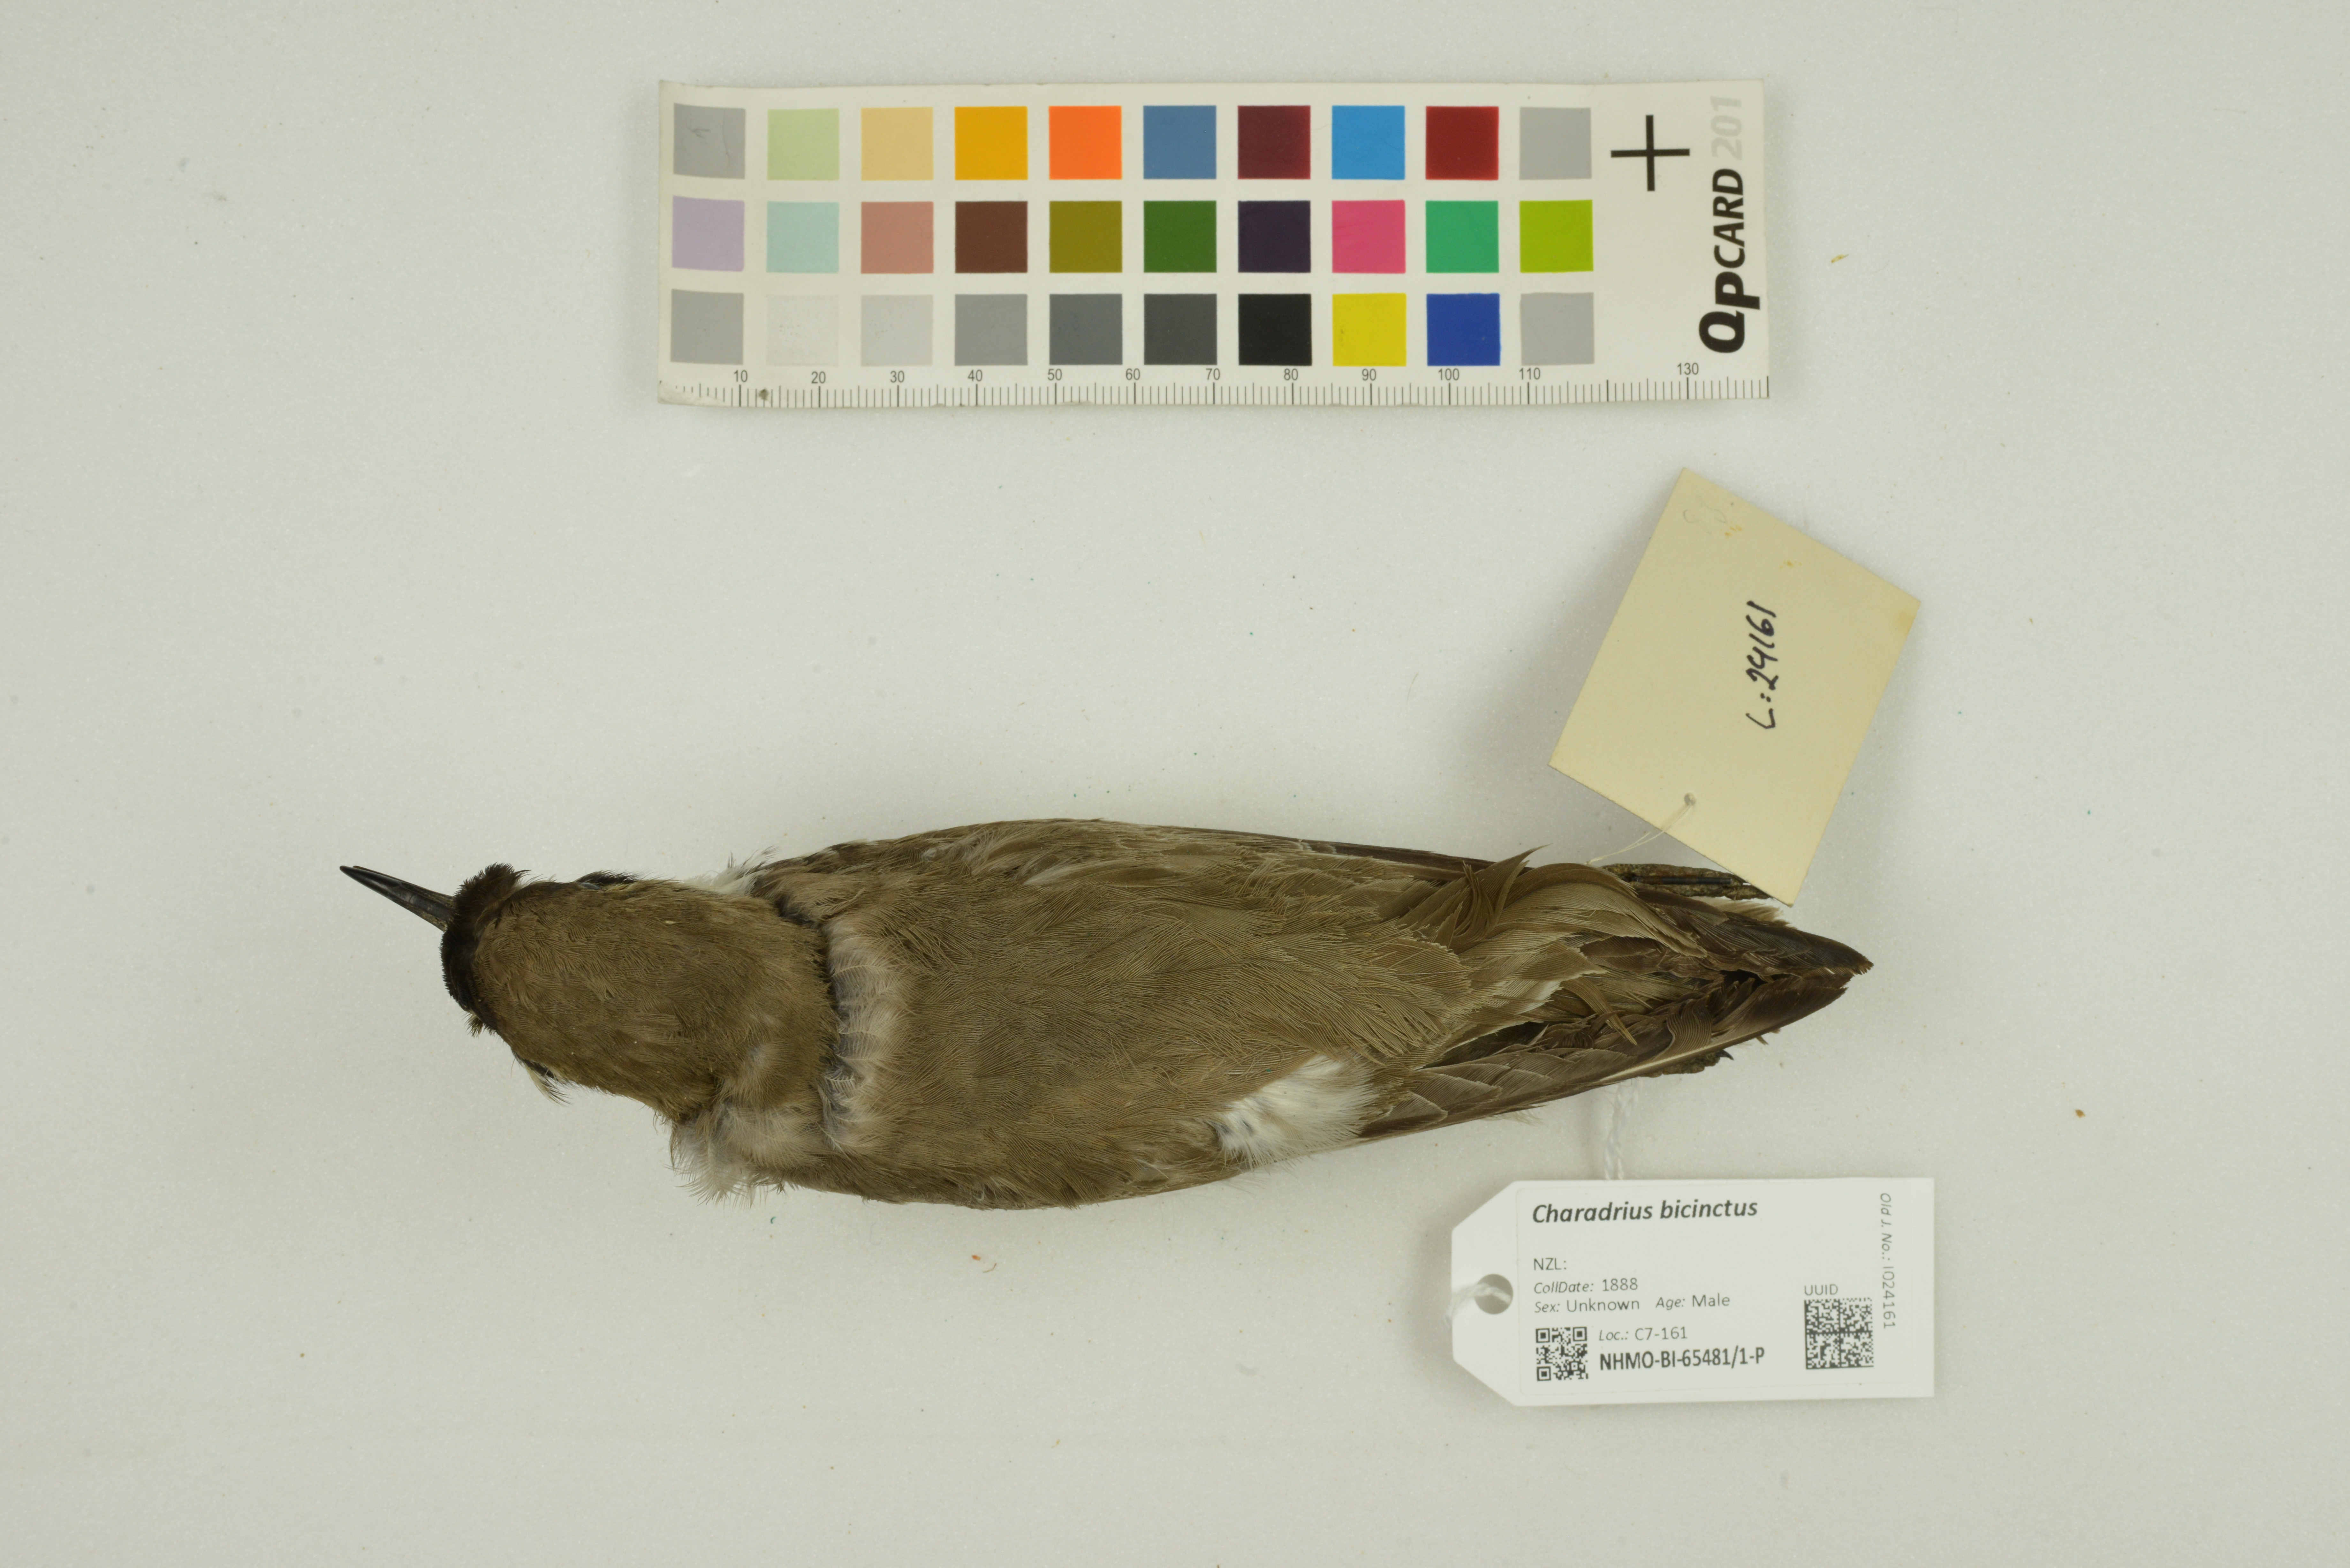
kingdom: Animalia
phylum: Chordata
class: Aves
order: Charadriiformes
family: Charadriidae
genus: Charadrius
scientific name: Charadrius bicinctus
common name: Double-banded plover
